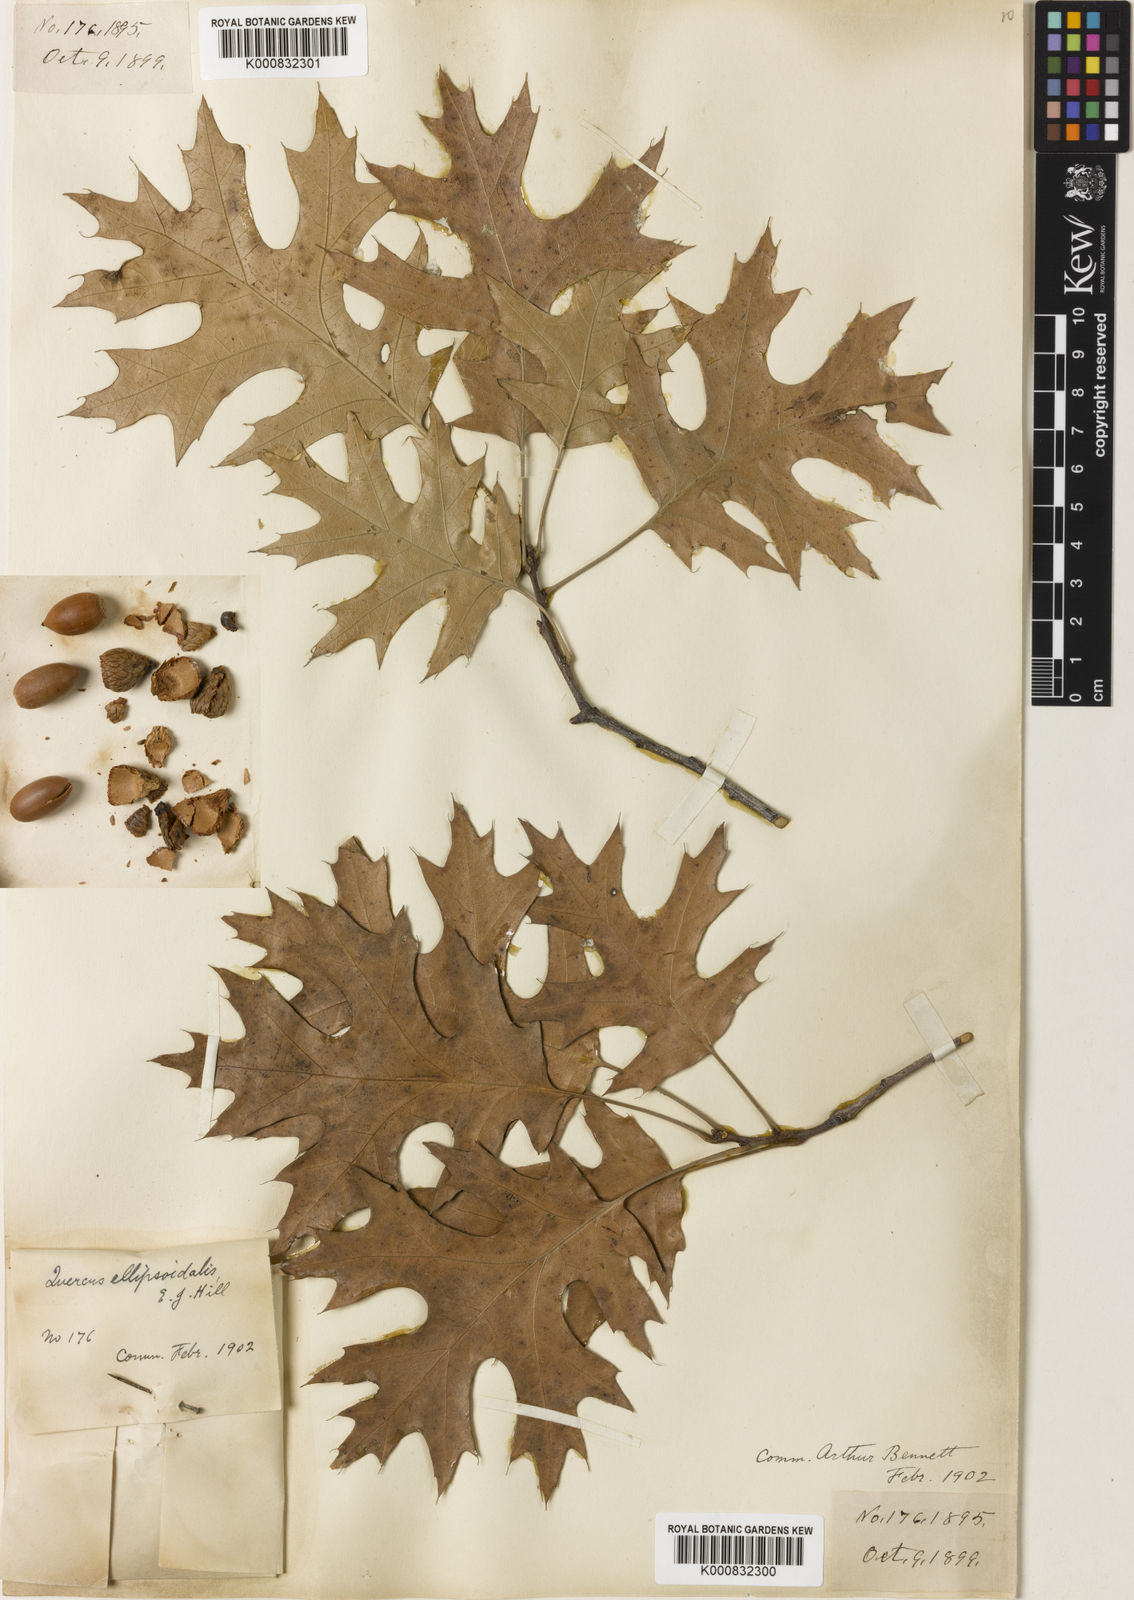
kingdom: Plantae
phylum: Tracheophyta
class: Magnoliopsida
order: Fagales
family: Fagaceae
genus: Quercus
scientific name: Quercus ellipsoidalis
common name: Hill's oak
